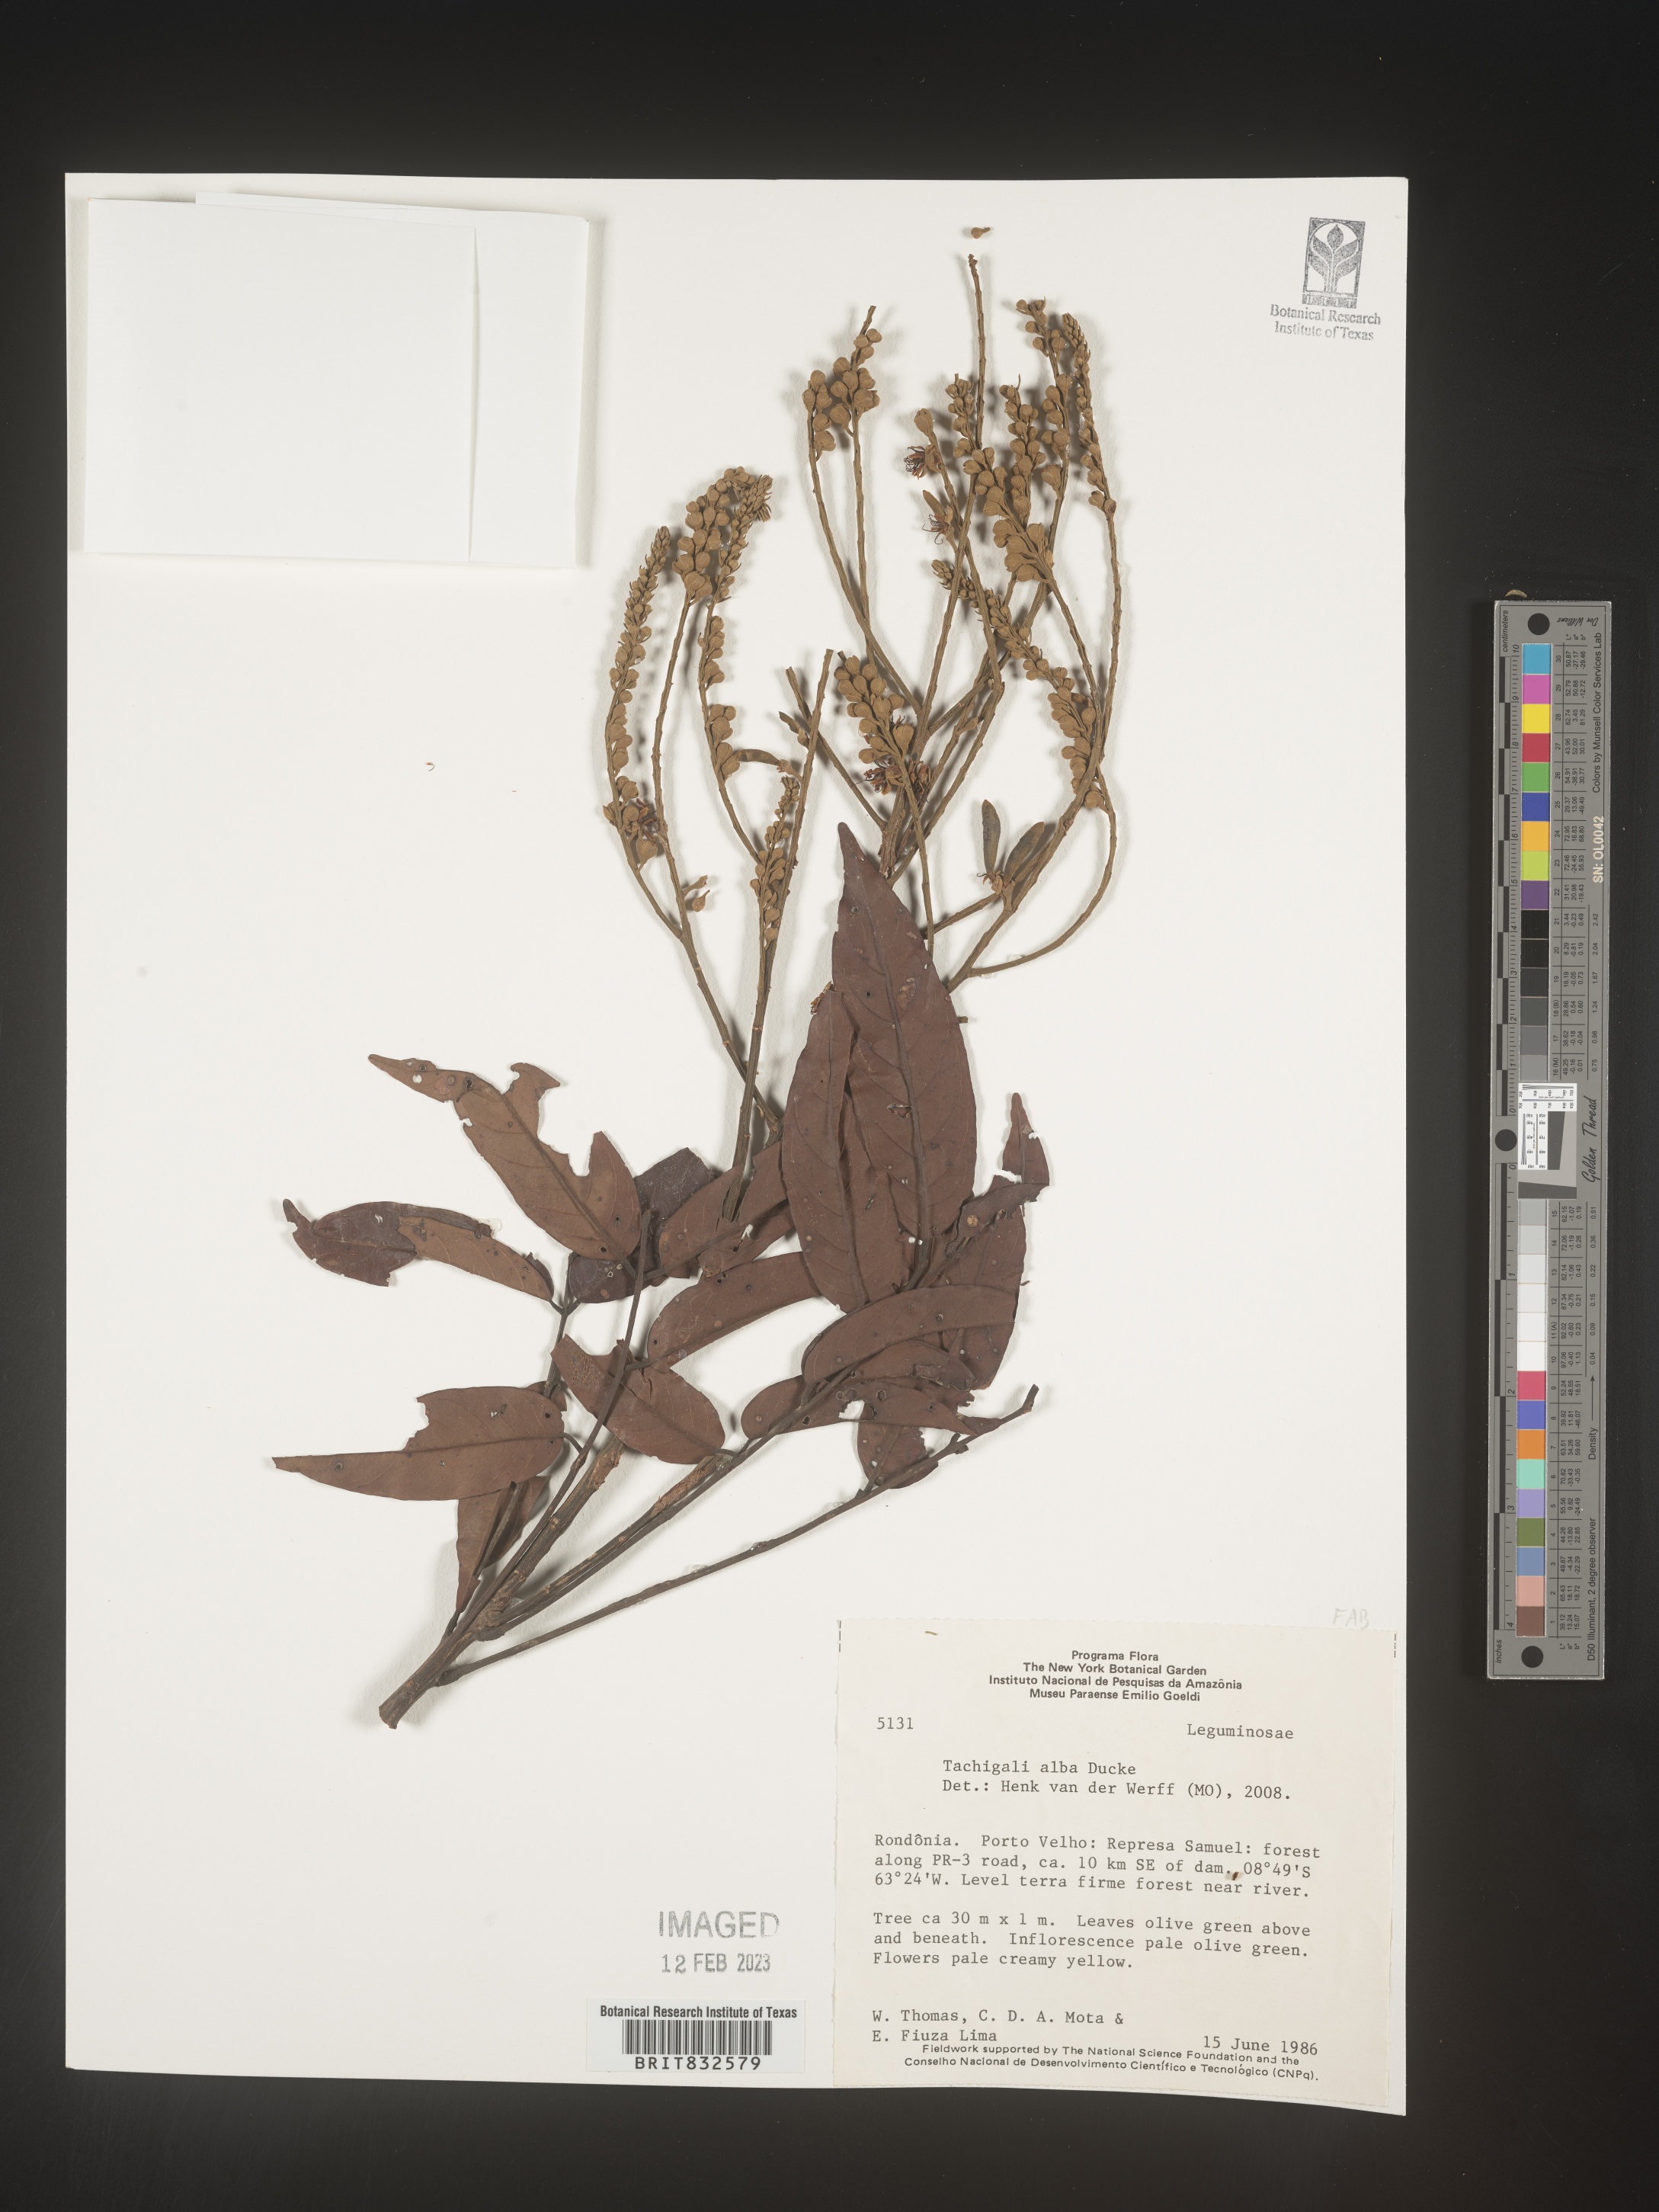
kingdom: Plantae
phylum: Tracheophyta
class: Magnoliopsida
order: Fabales
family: Fabaceae
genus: Tachigali
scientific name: Tachigali
